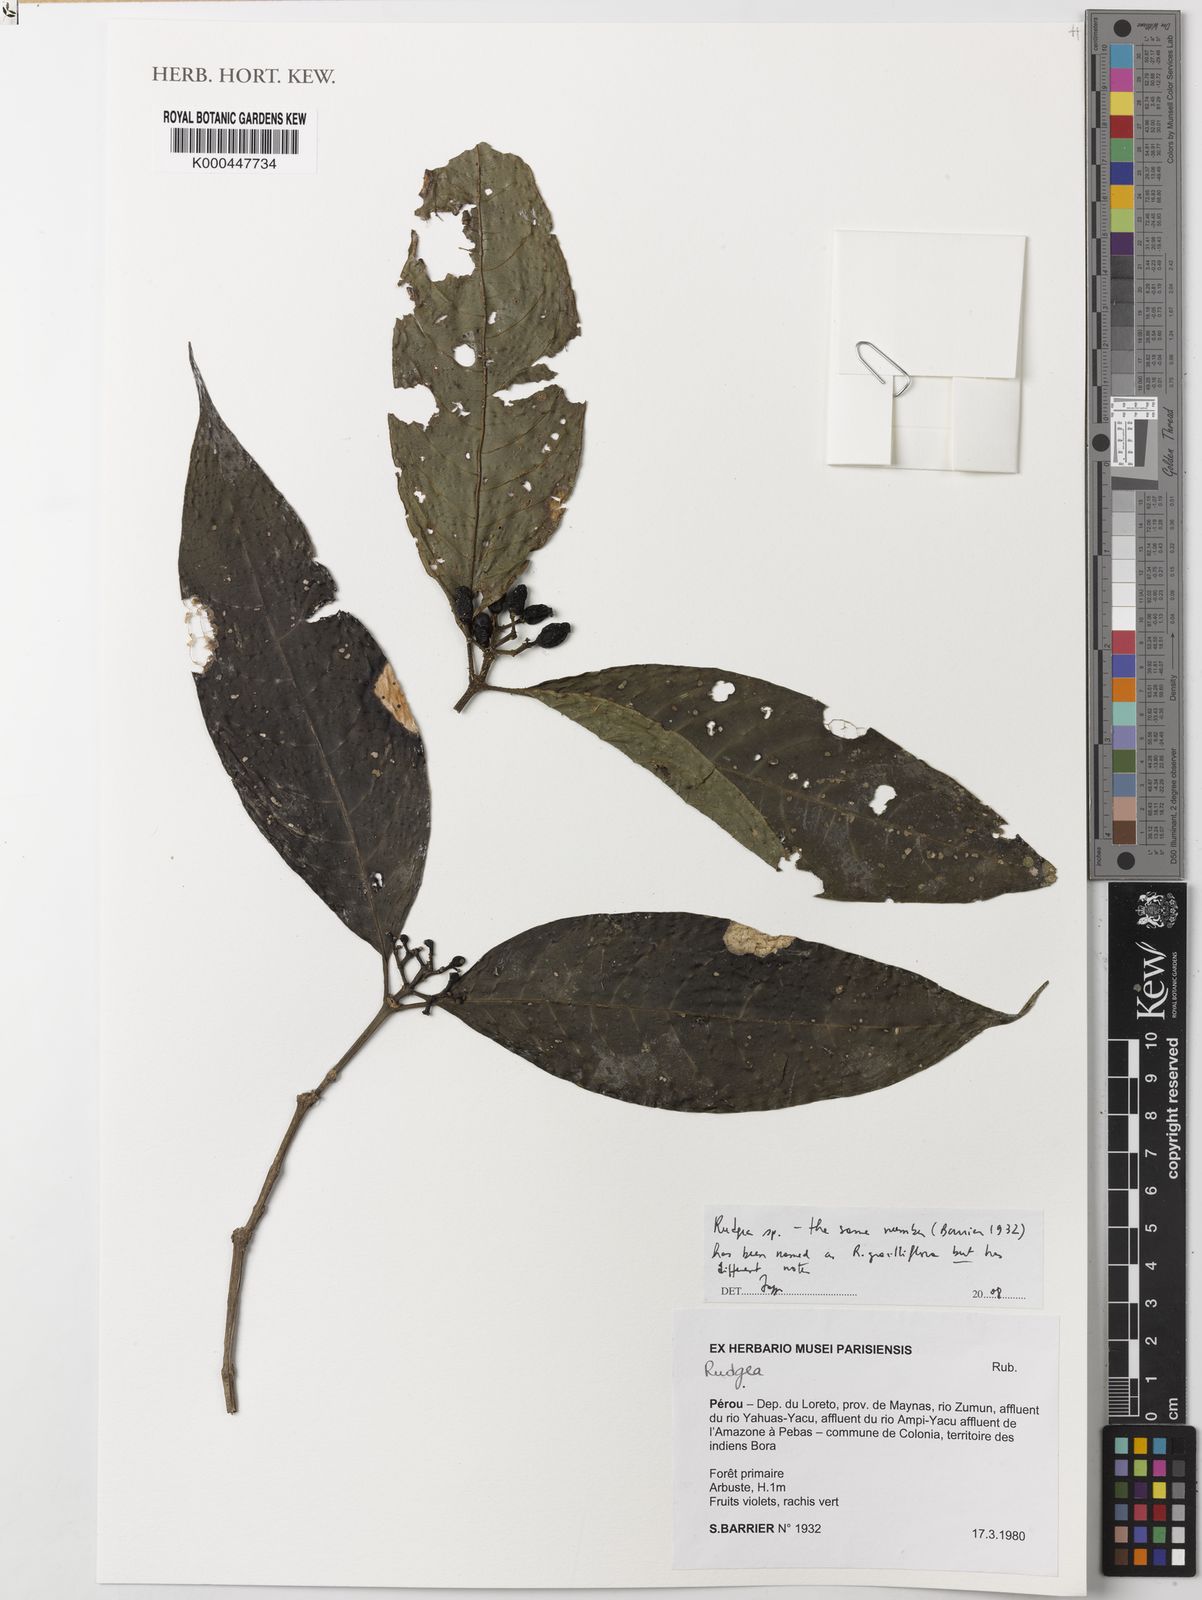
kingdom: Plantae
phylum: Tracheophyta
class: Magnoliopsida
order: Gentianales
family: Rubiaceae
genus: Rudgea
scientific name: Rudgea
